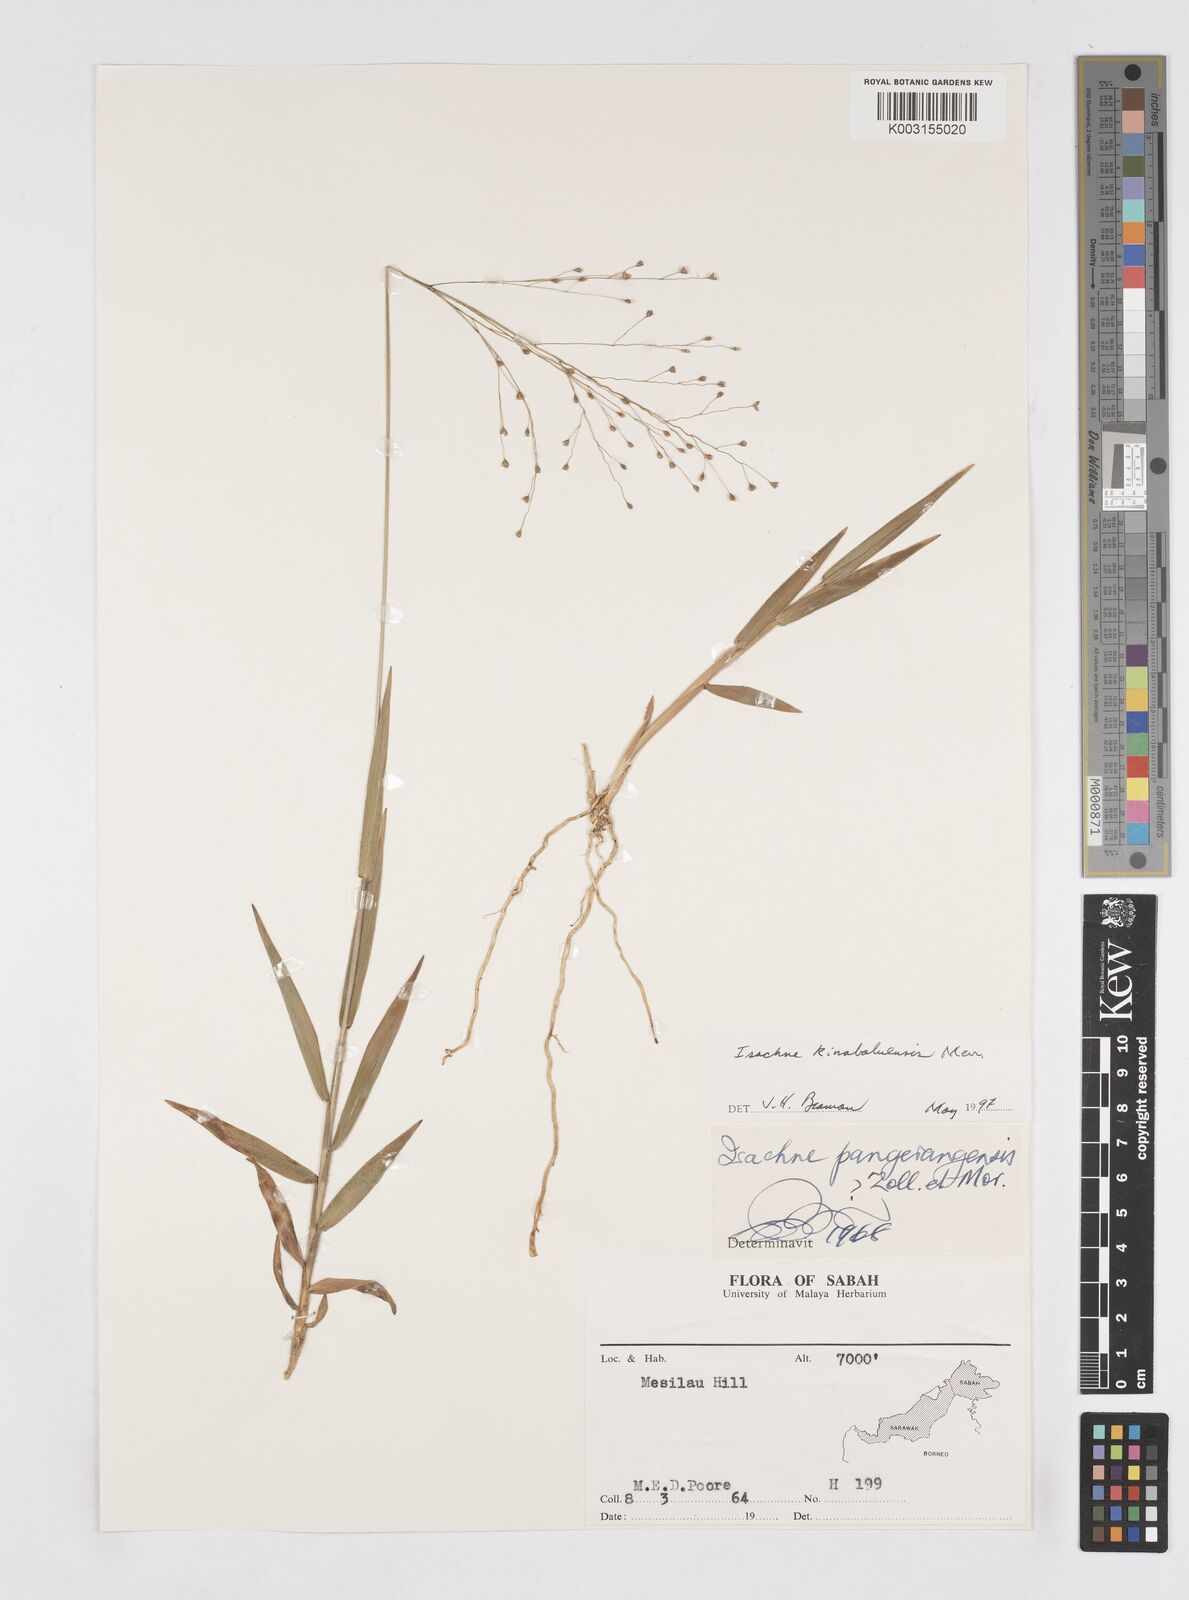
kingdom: Plantae
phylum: Tracheophyta
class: Liliopsida
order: Poales
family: Poaceae
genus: Isachne
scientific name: Isachne kinabaluensis
